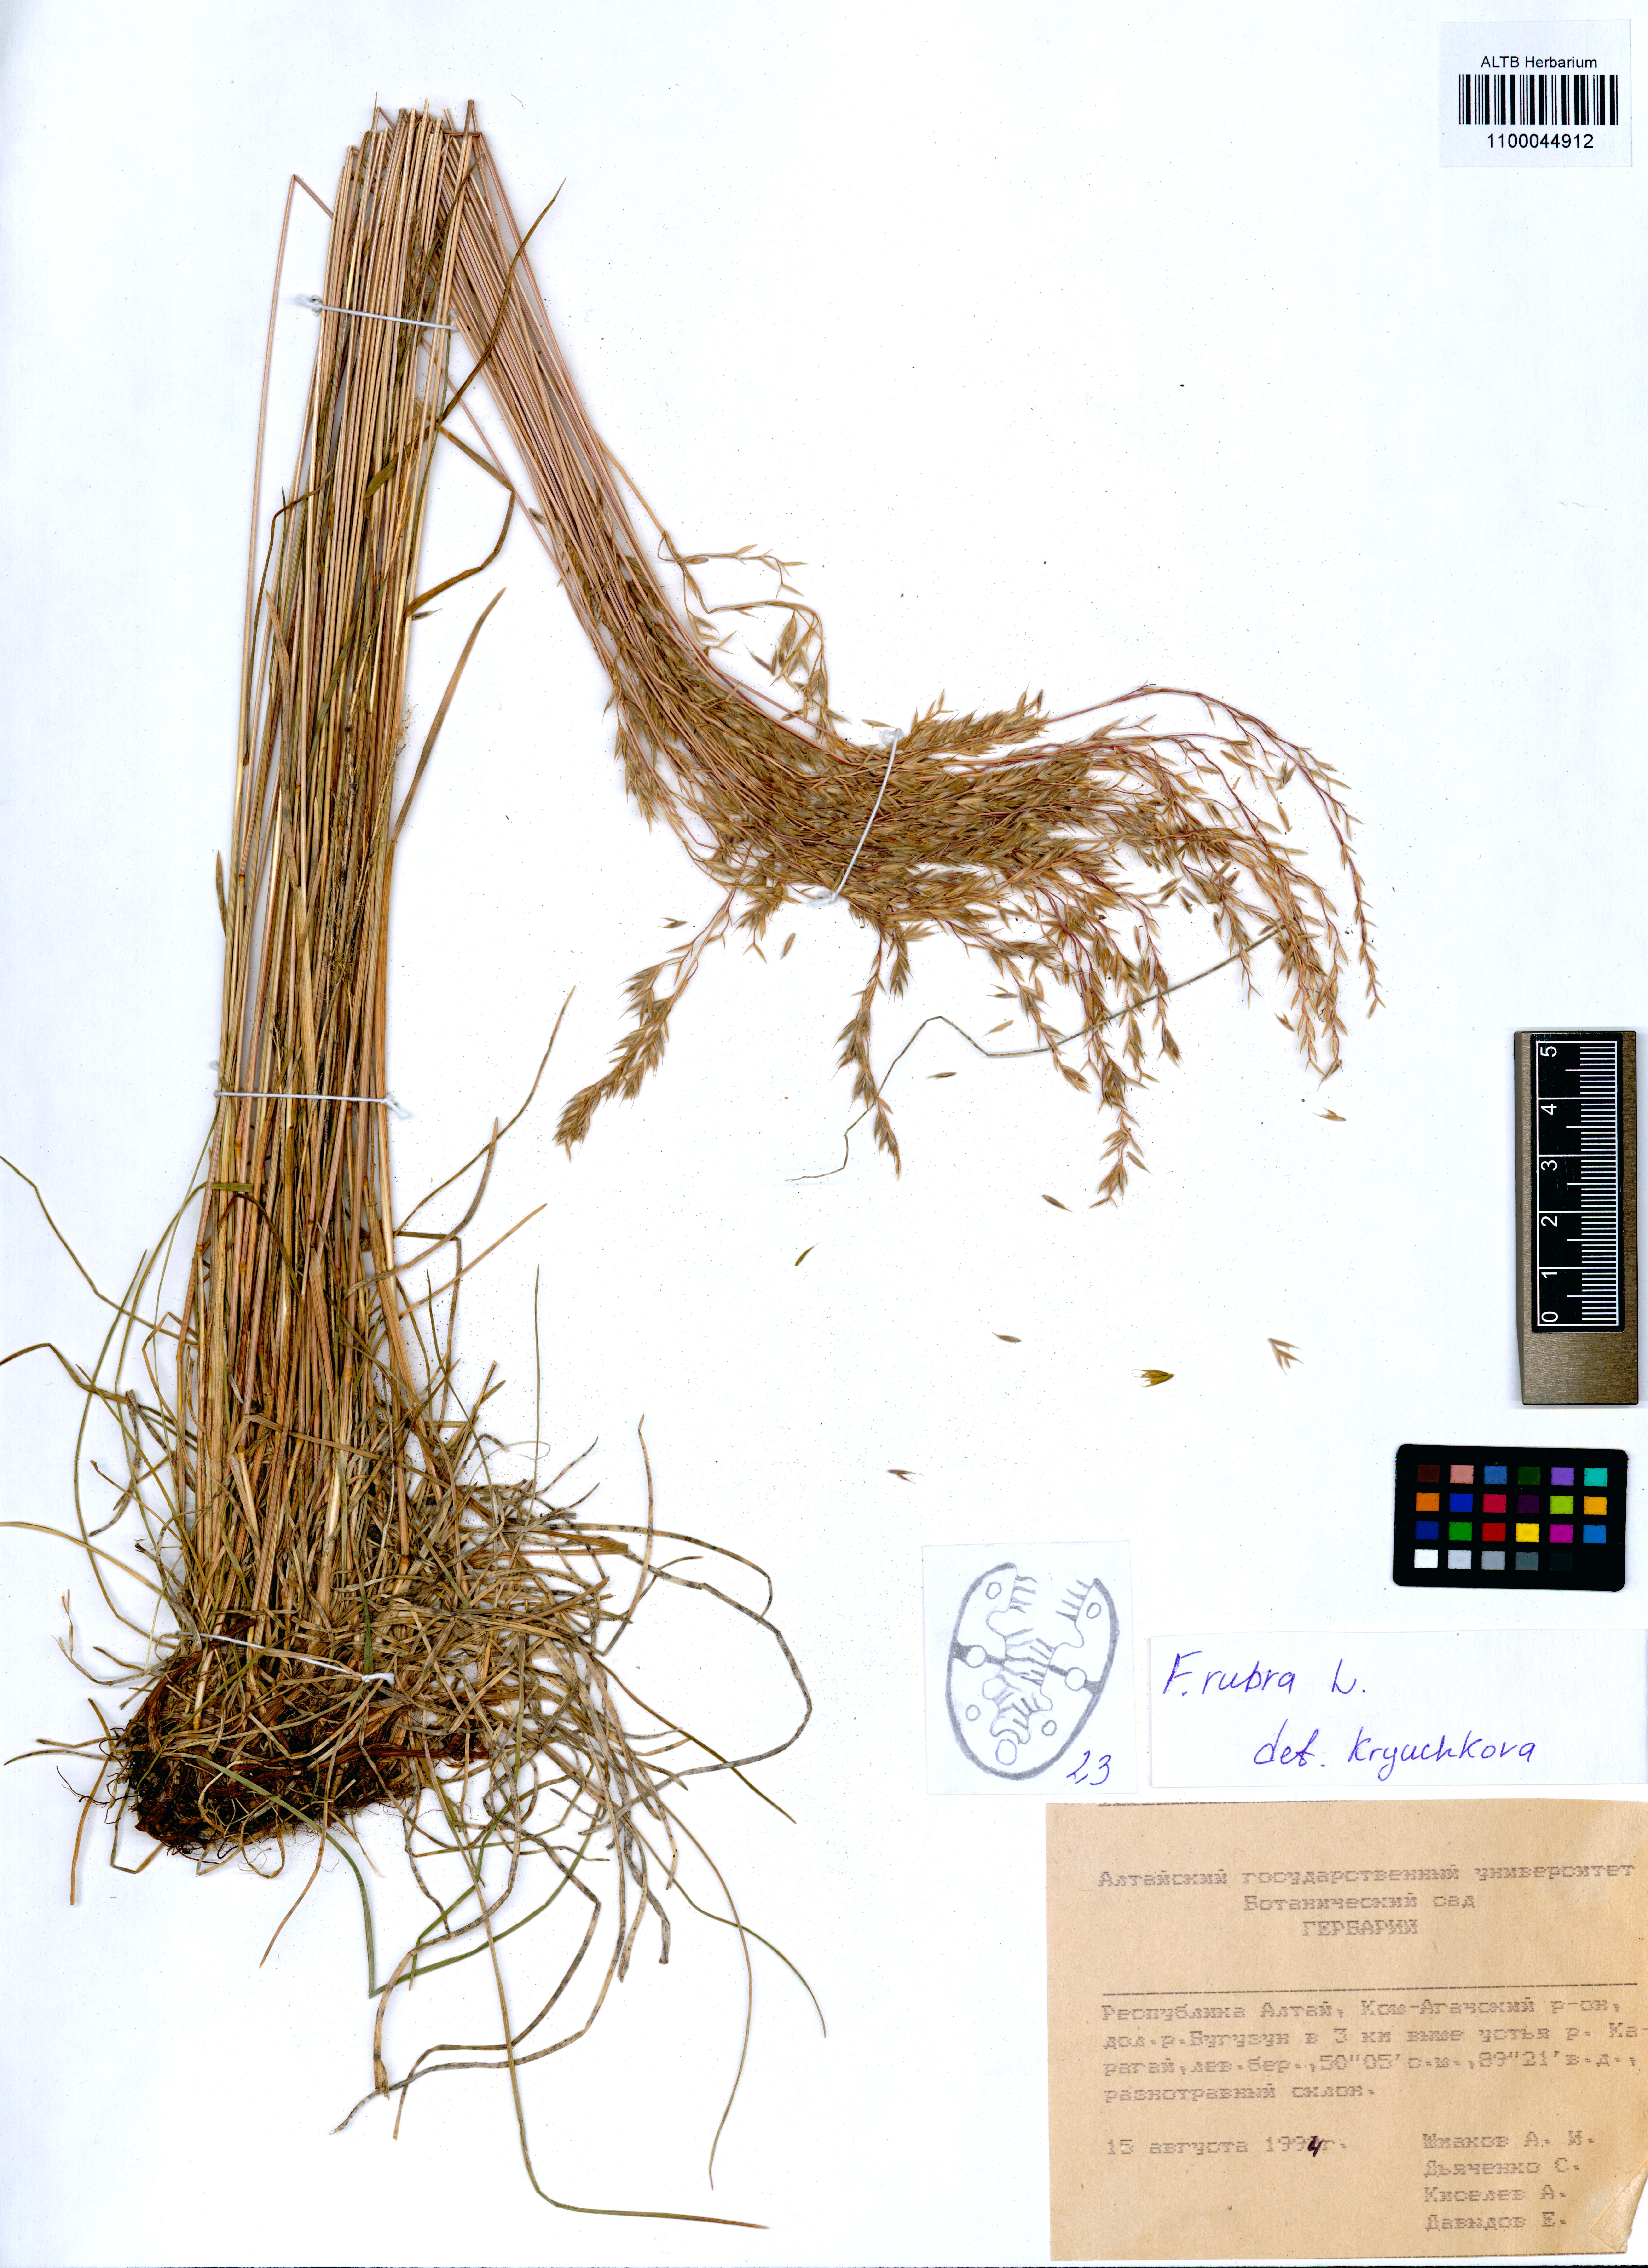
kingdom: Plantae
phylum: Tracheophyta
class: Liliopsida
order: Poales
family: Poaceae
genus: Festuca
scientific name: Festuca rubra
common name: Red fescue
